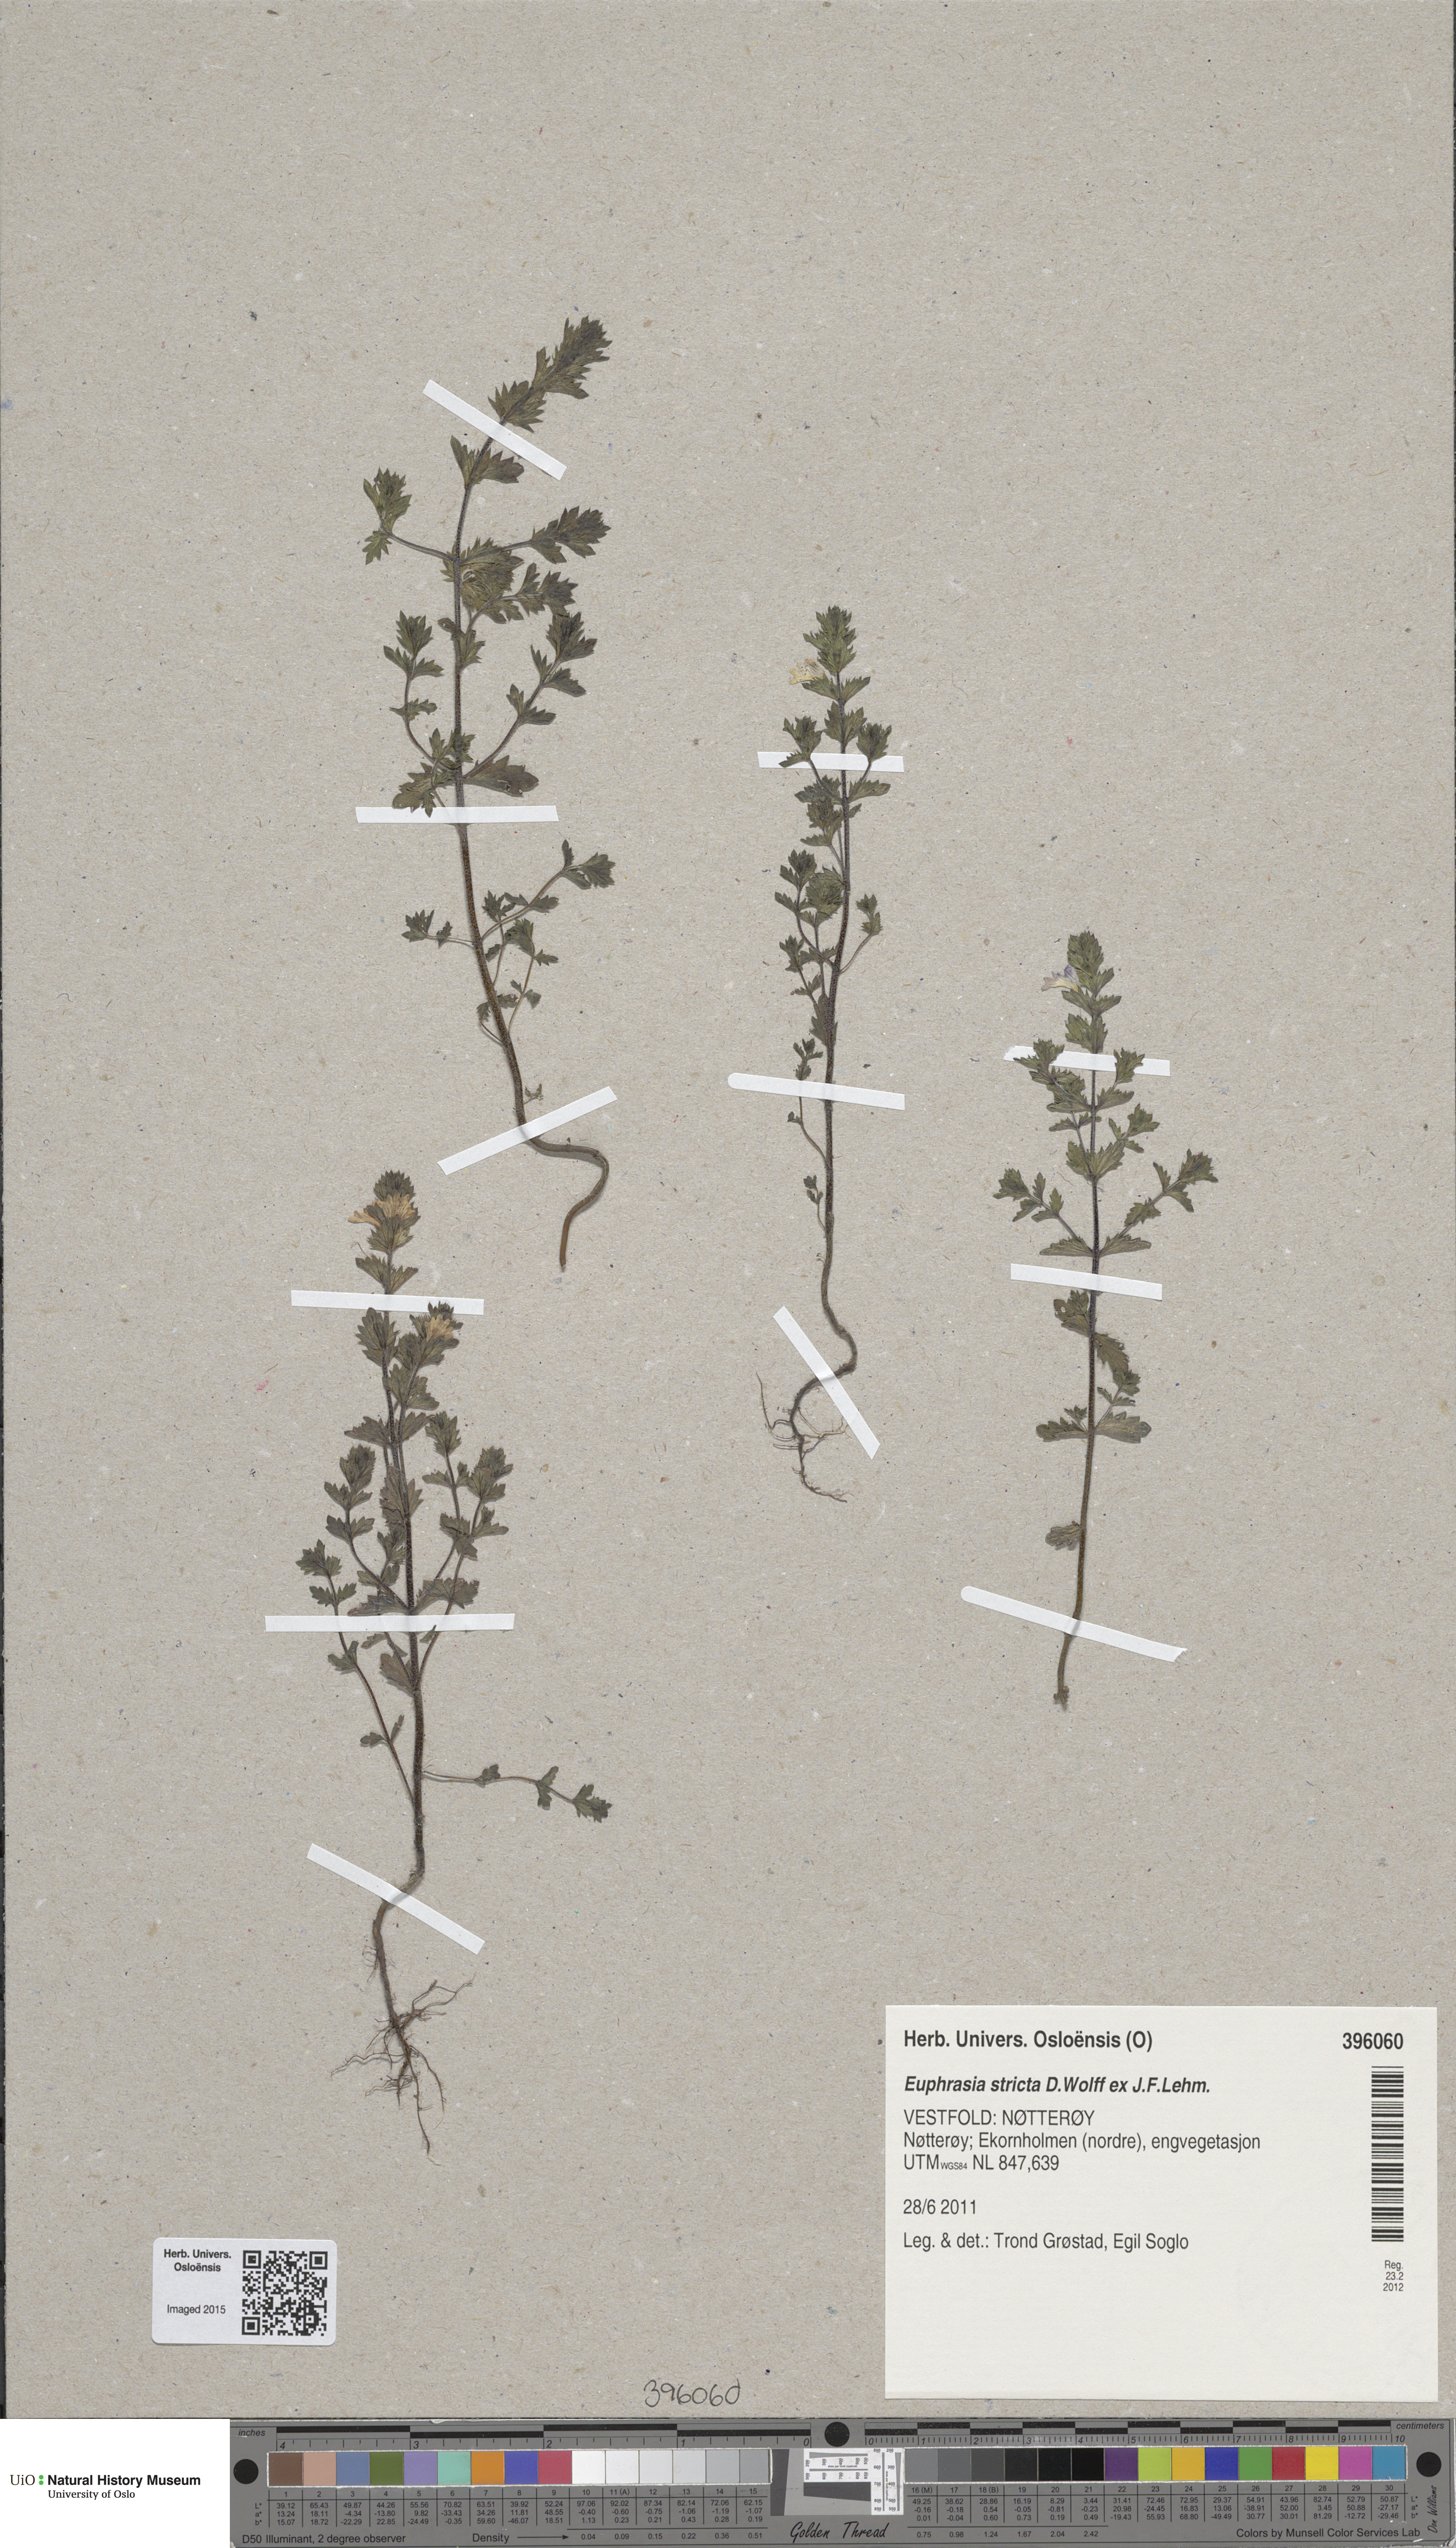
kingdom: Plantae
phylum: Tracheophyta
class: Magnoliopsida
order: Lamiales
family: Orobanchaceae
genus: Euphrasia
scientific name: Euphrasia stricta
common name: Drug eyebright
